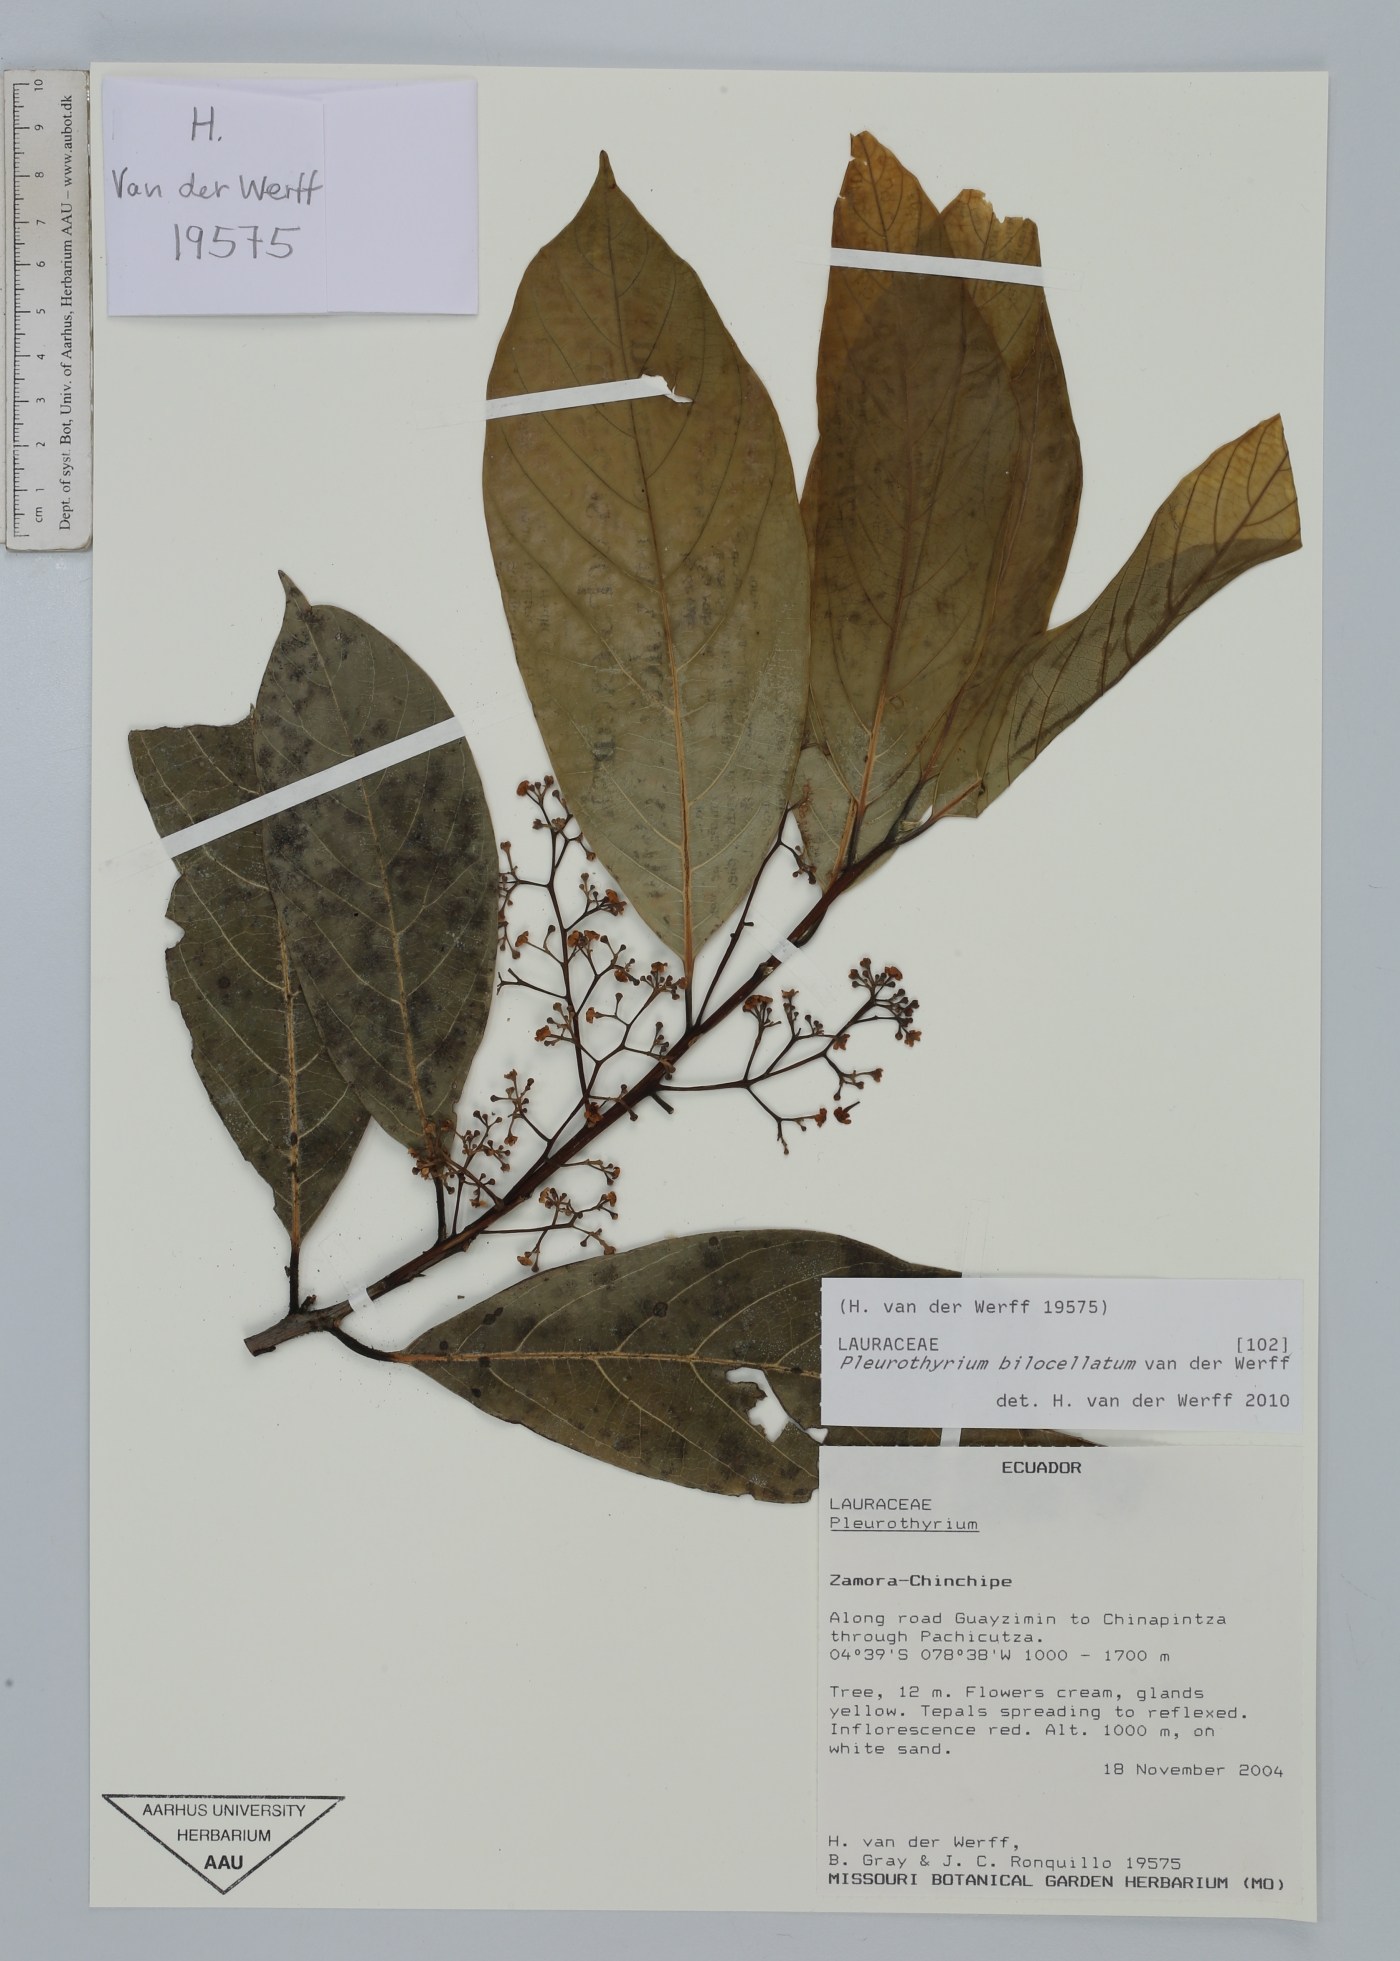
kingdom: Plantae
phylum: Tracheophyta
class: Magnoliopsida
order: Laurales
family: Lauraceae
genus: Endlicheria
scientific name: Endlicheria rubiflora
